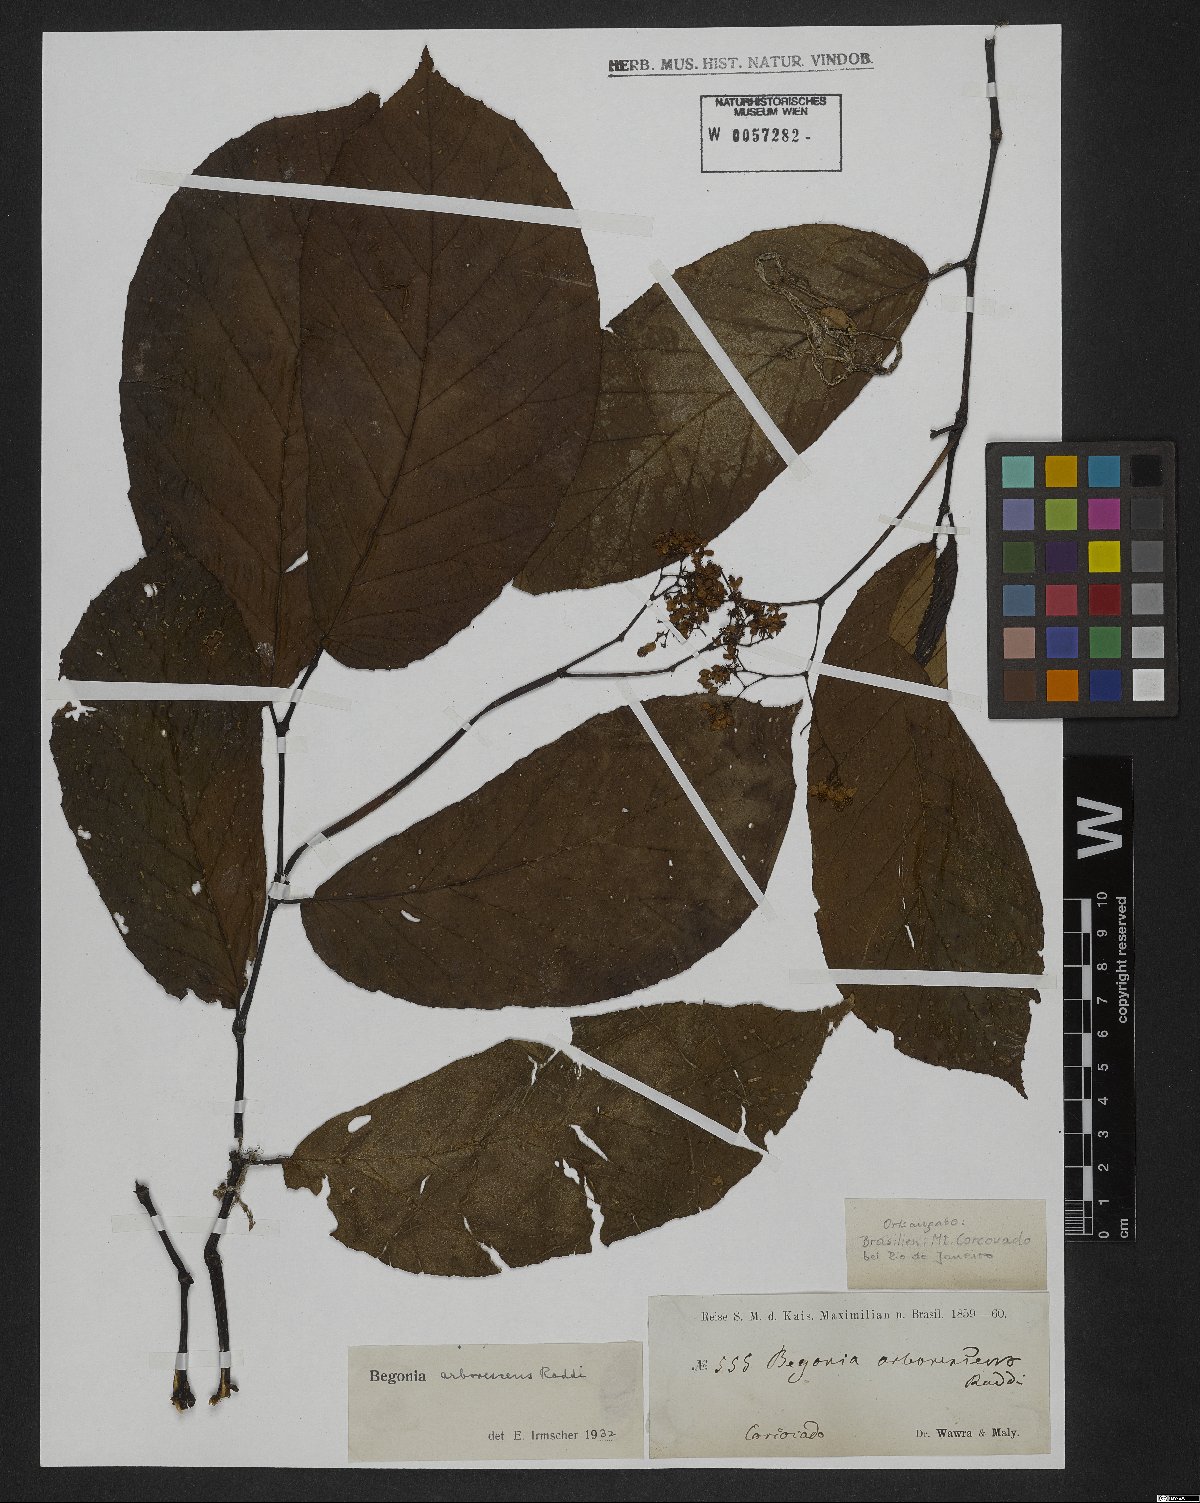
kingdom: Plantae
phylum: Tracheophyta
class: Magnoliopsida
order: Cucurbitales
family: Begoniaceae
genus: Begonia
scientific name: Begonia arborescens
